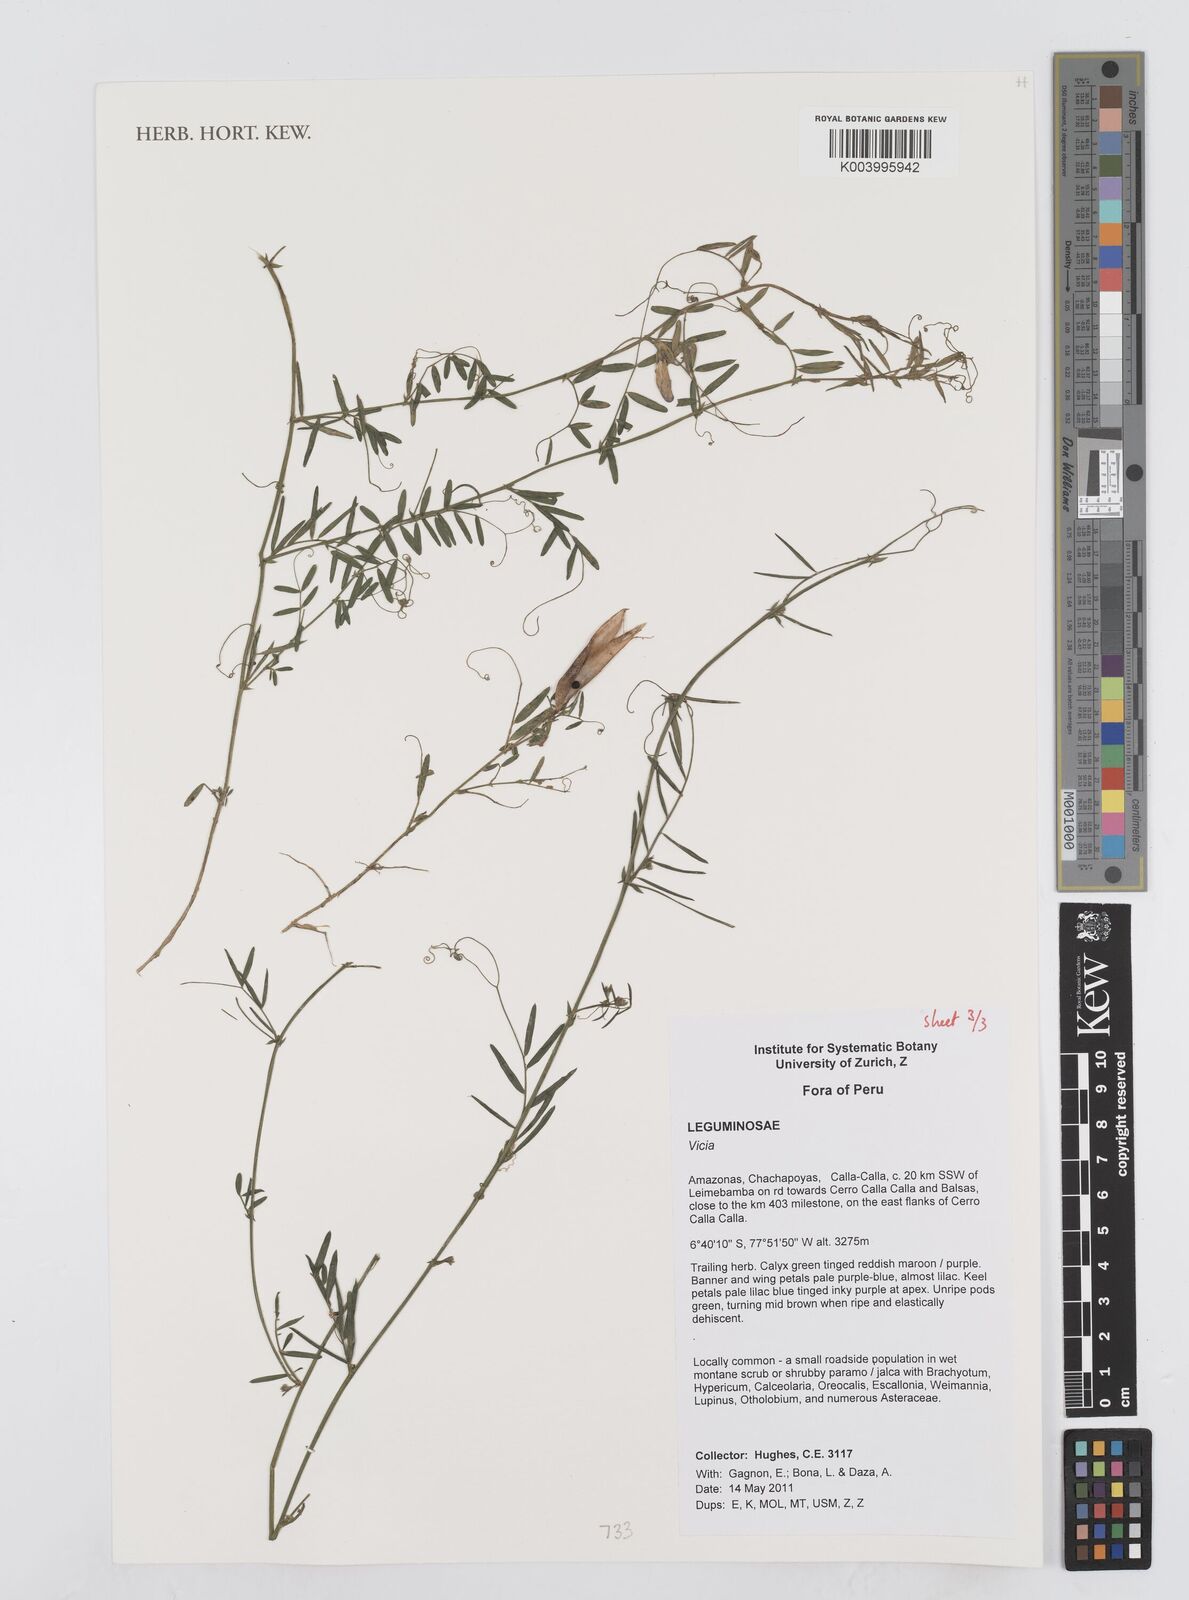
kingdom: Plantae
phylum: Tracheophyta
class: Magnoliopsida
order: Fabales
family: Fabaceae
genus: Vicia
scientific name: Vicia
